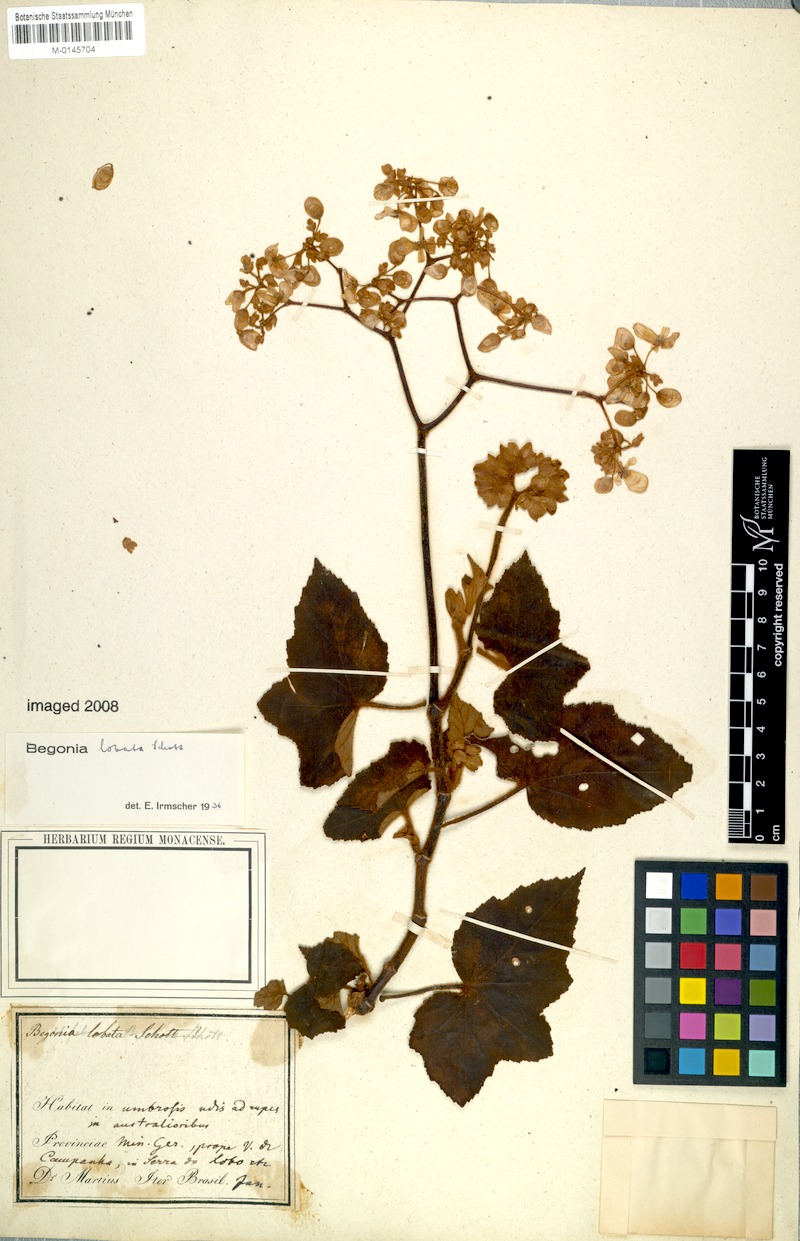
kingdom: Plantae
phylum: Tracheophyta
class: Magnoliopsida
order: Cucurbitales
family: Begoniaceae
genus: Begonia
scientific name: Begonia rufa
